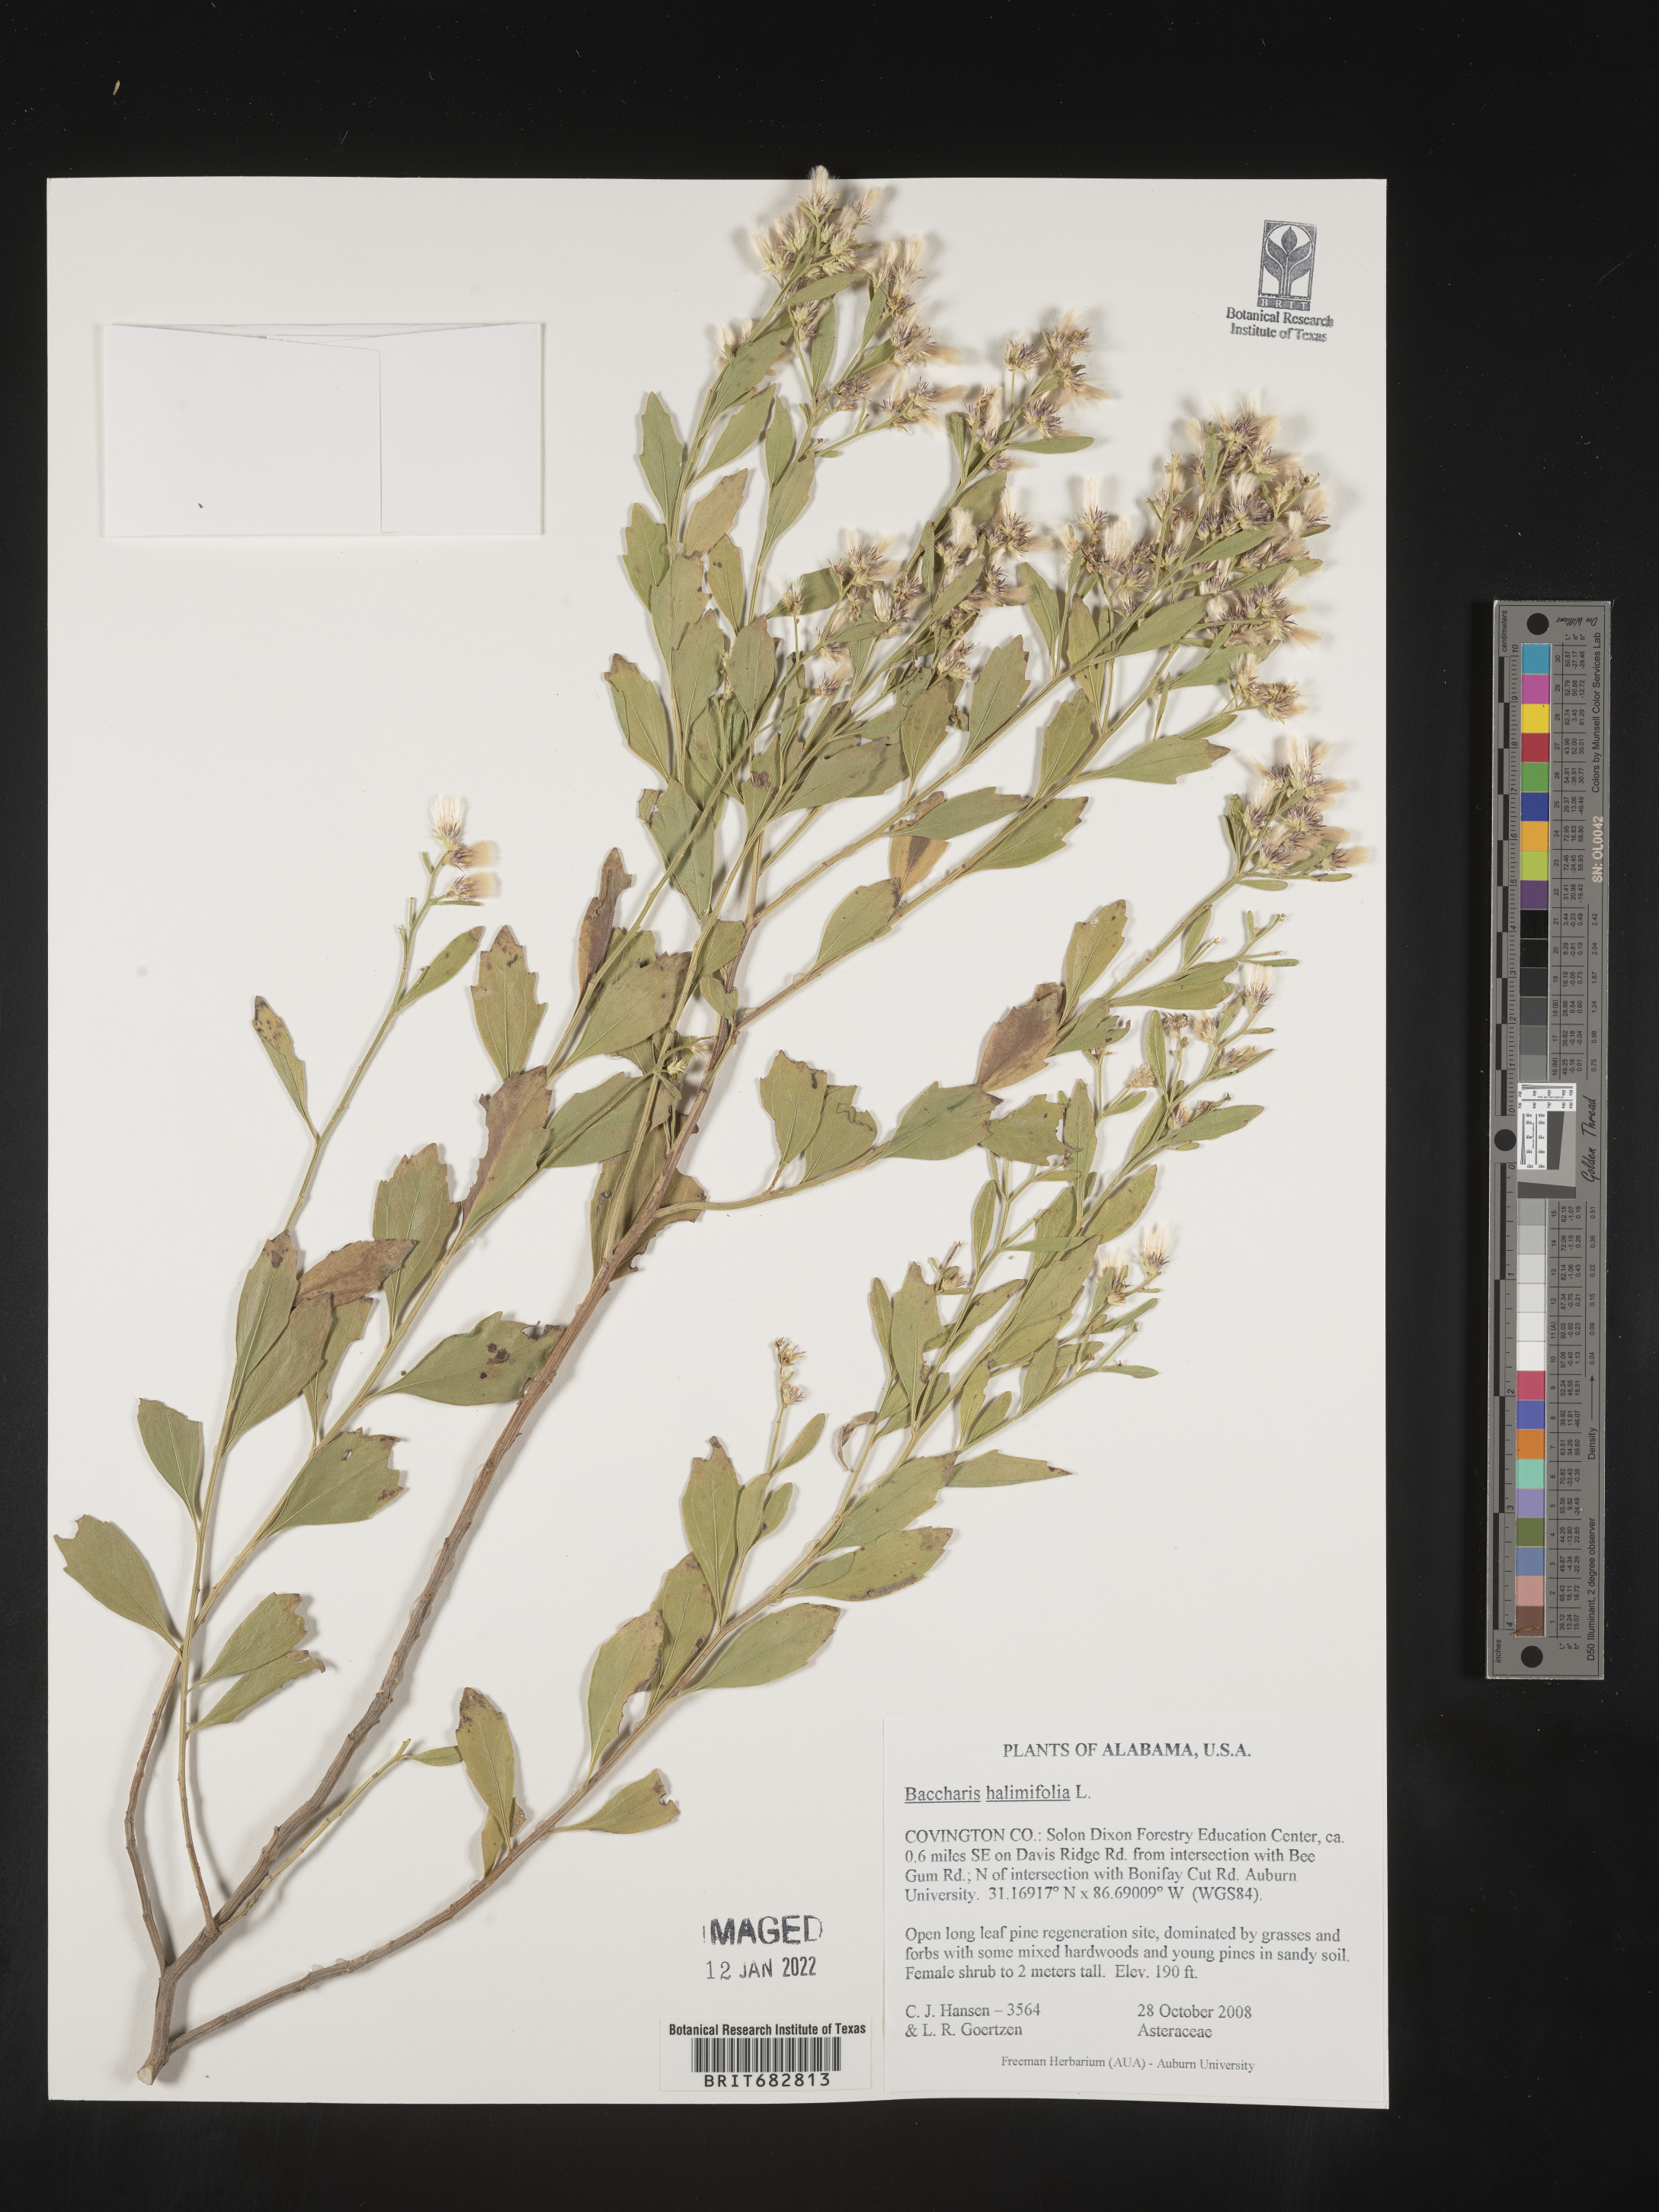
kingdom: Plantae
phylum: Tracheophyta
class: Magnoliopsida
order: Asterales
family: Asteraceae
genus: Nidorella
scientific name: Nidorella ivifolia
